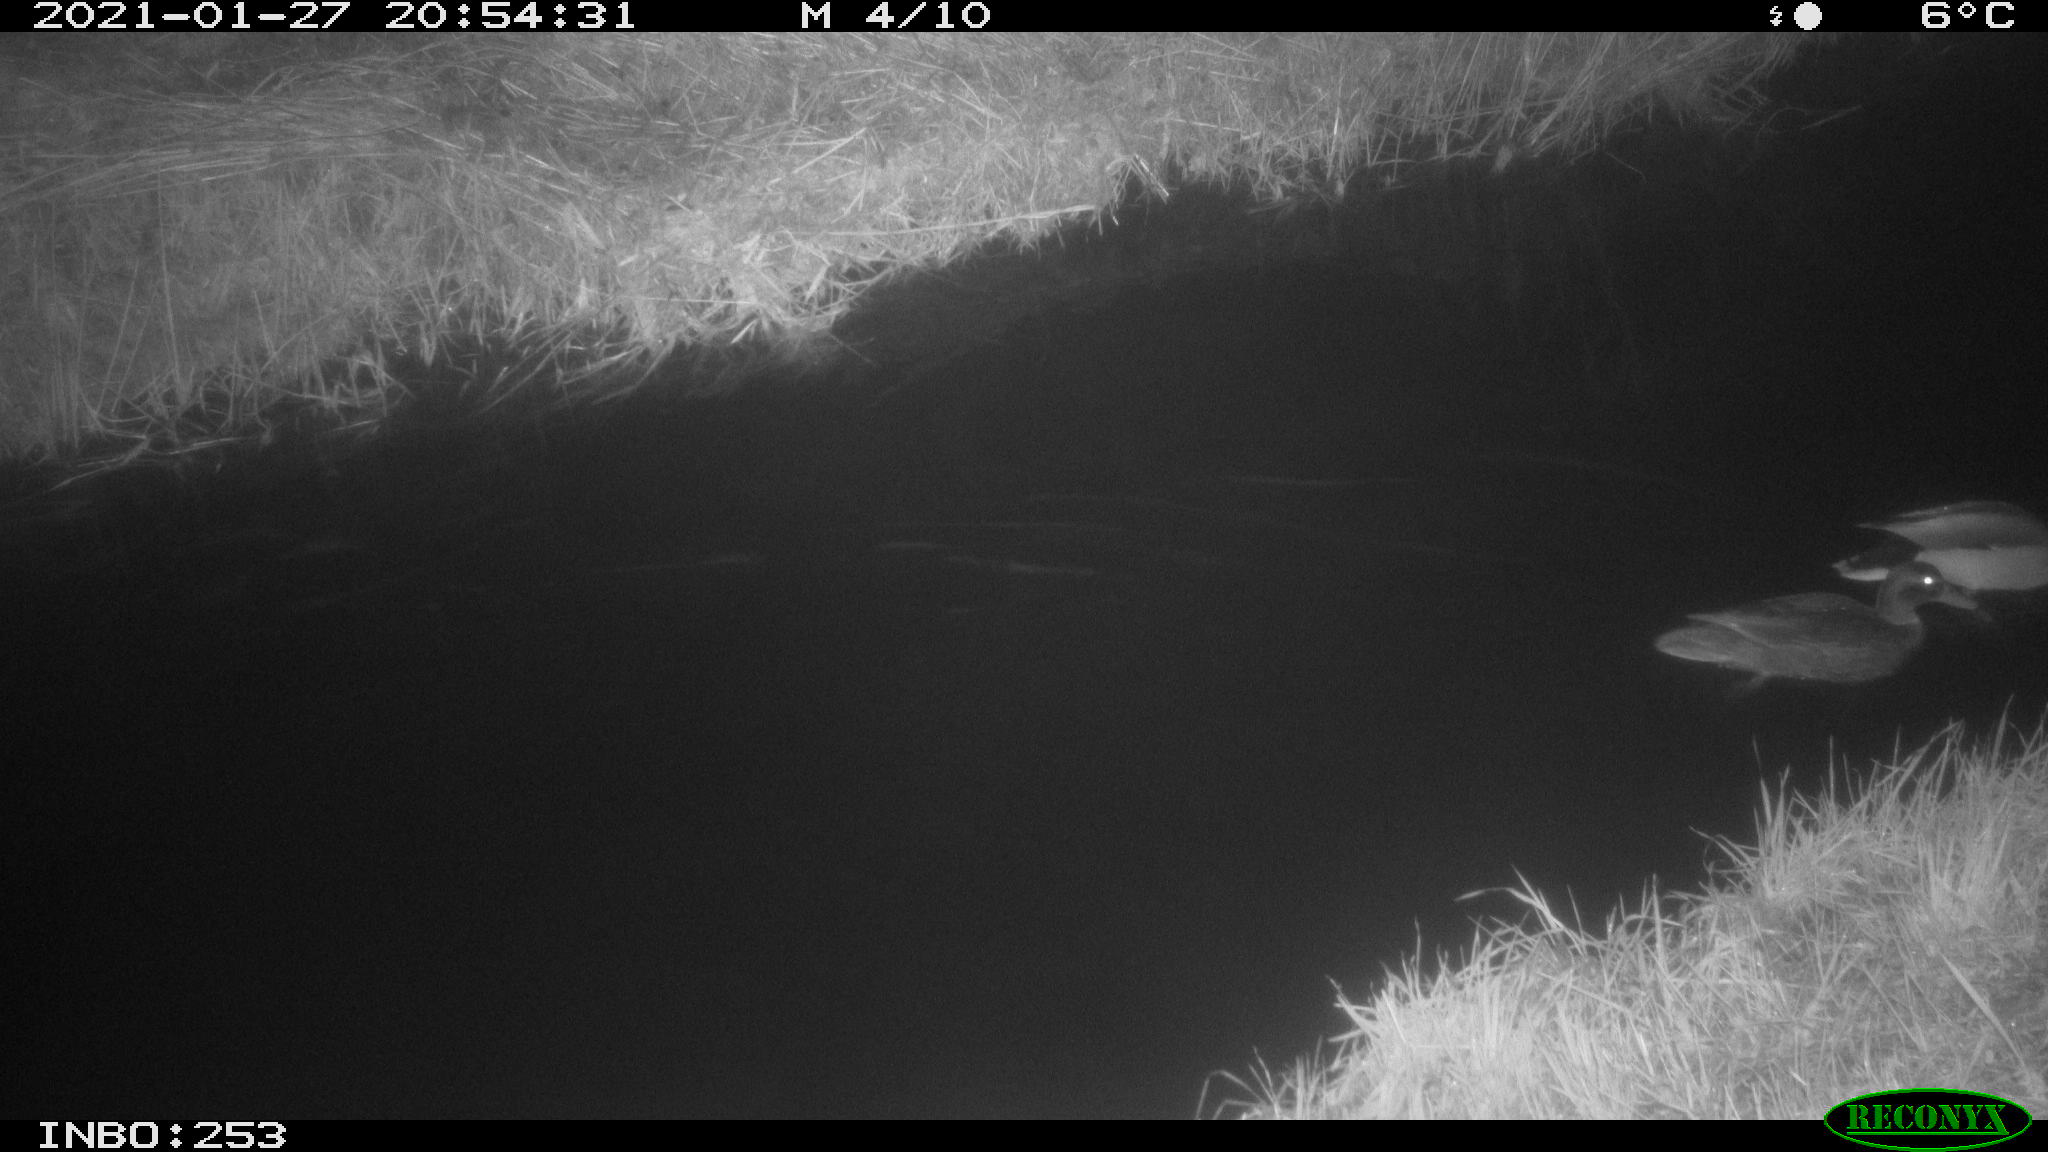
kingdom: Animalia
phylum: Chordata
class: Aves
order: Anseriformes
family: Anatidae
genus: Anas
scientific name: Anas platyrhynchos
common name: Mallard
